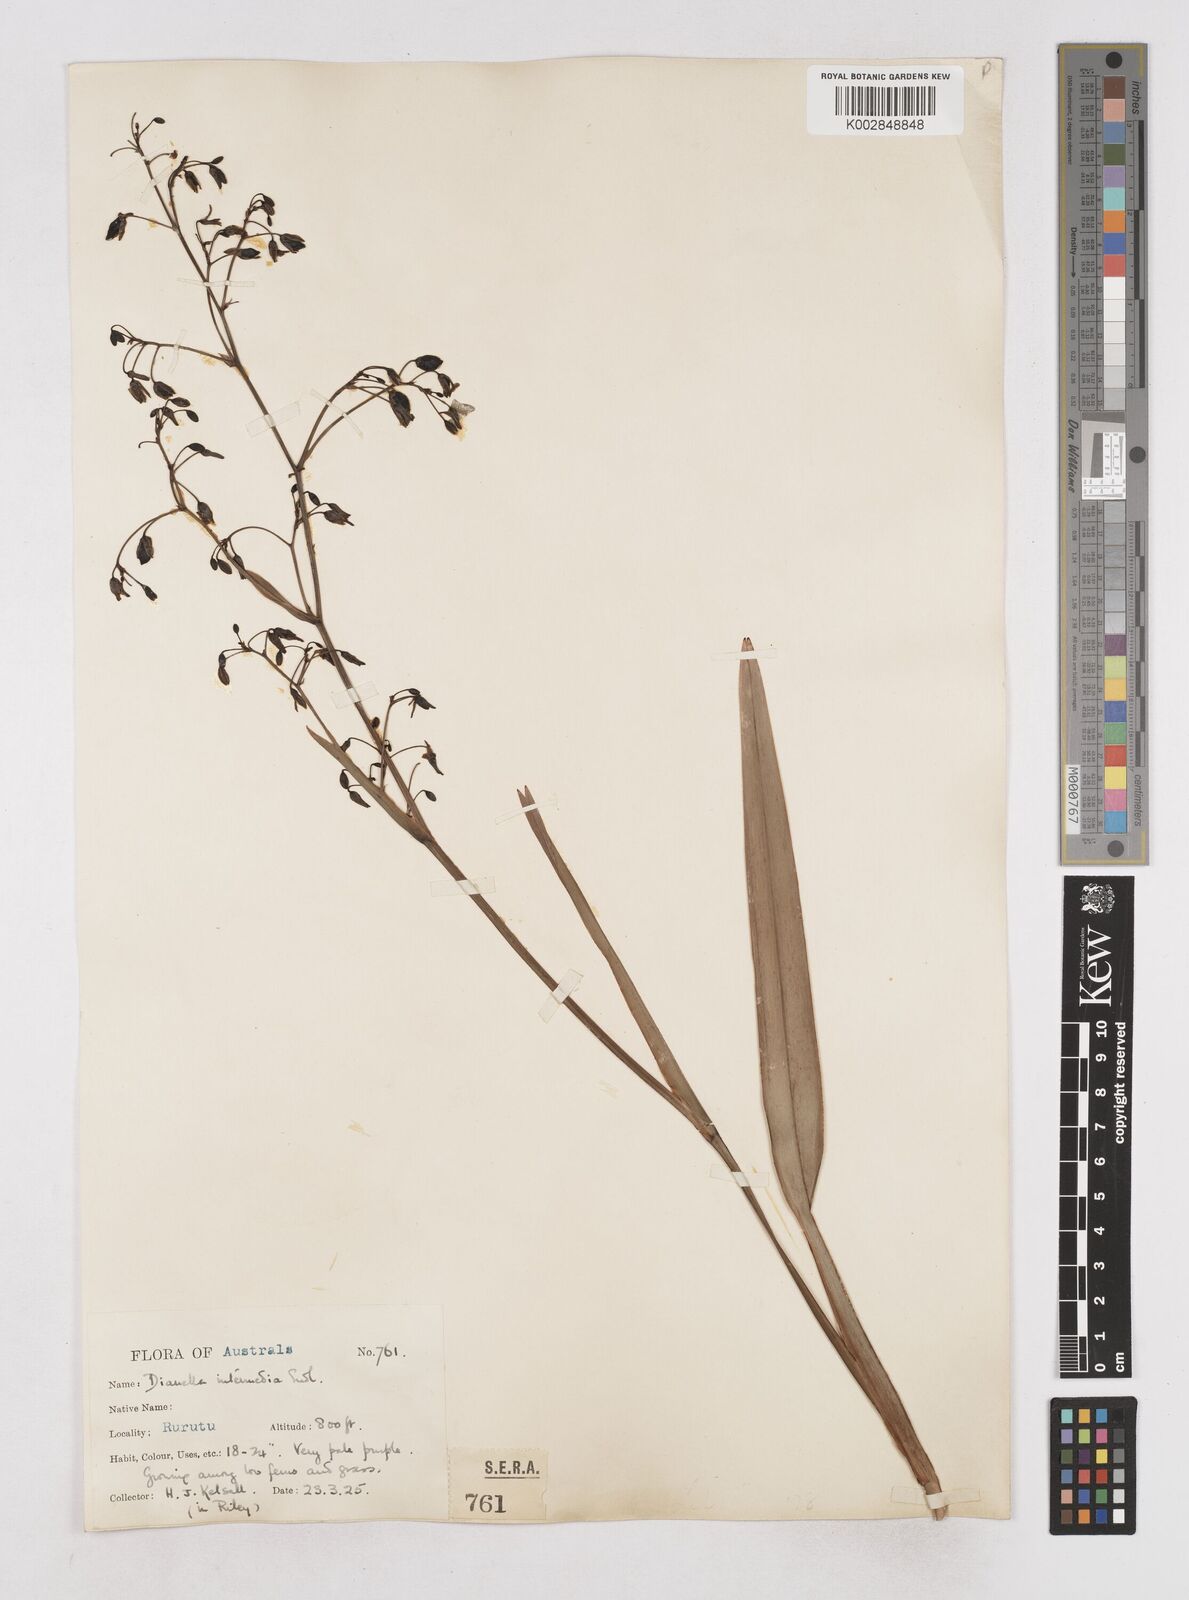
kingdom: Plantae
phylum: Tracheophyta
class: Liliopsida
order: Asparagales
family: Asphodelaceae
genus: Dianella
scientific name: Dianella acutifolia
